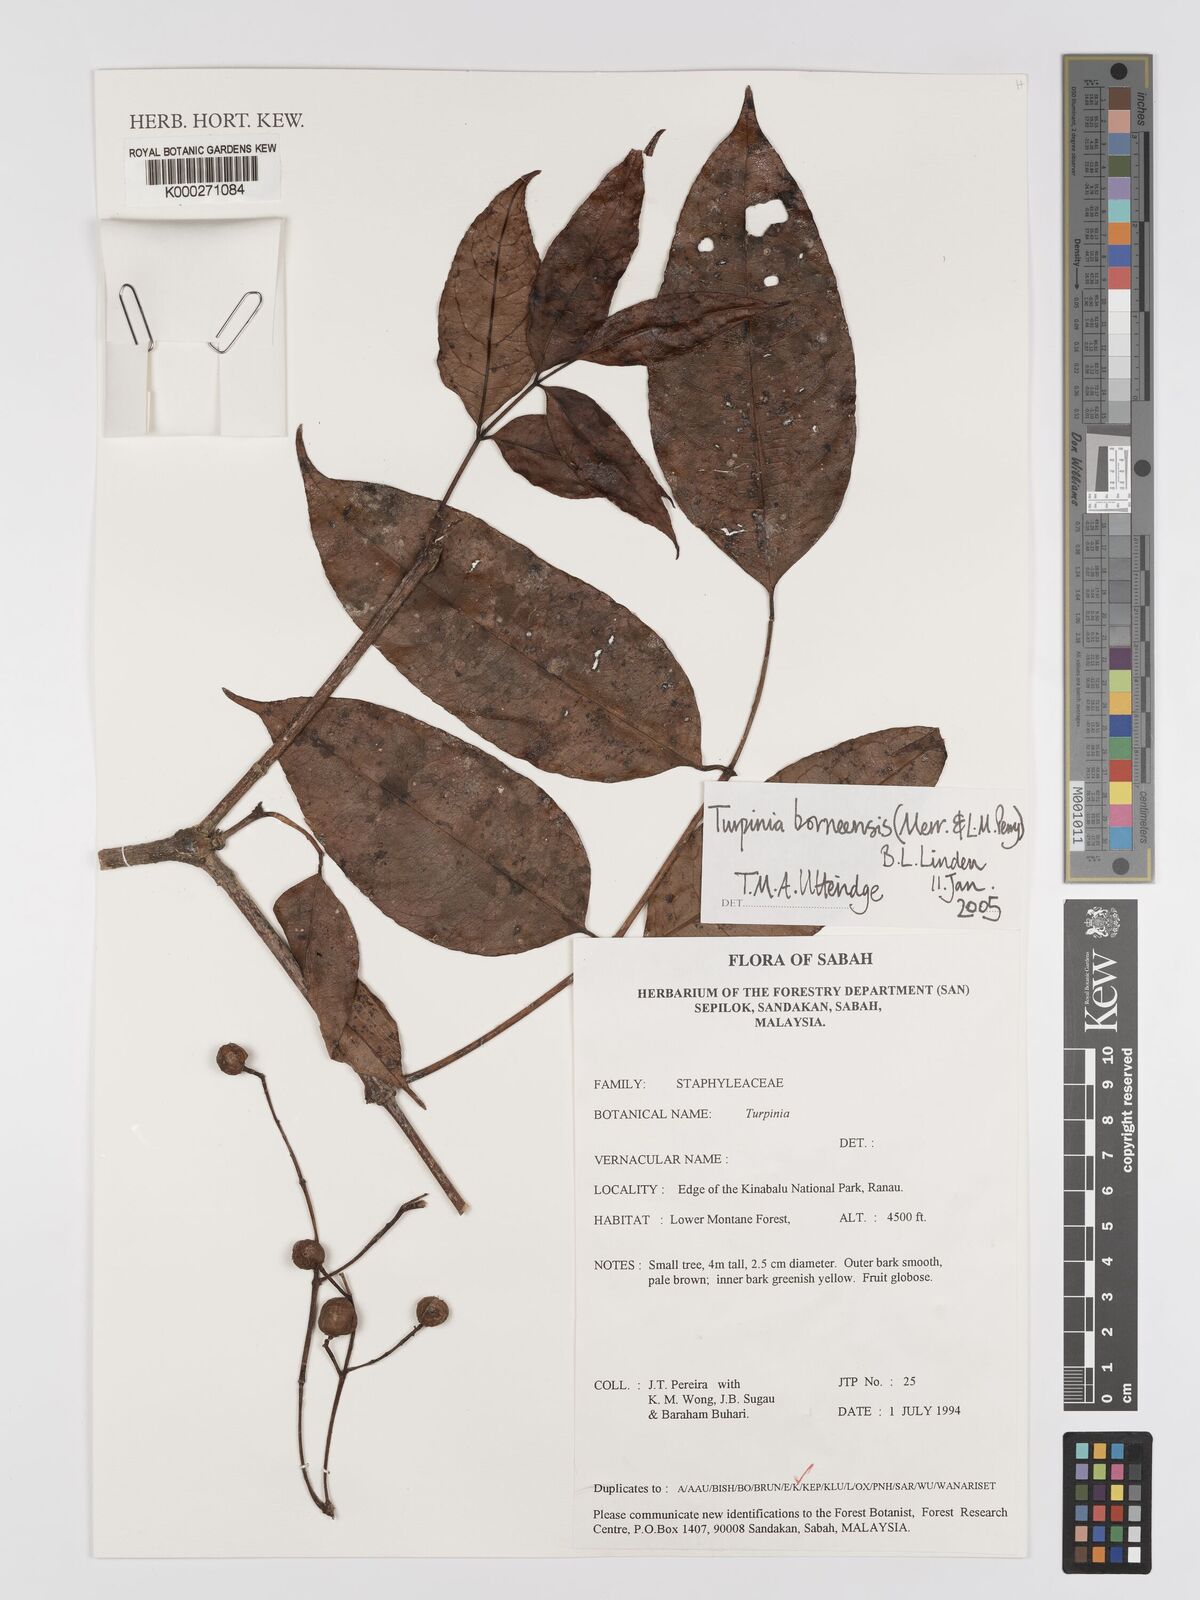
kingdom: Plantae
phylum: Tracheophyta
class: Magnoliopsida
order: Crossosomatales
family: Staphyleaceae
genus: Dalrympelea
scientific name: Dalrympelea borneensis
